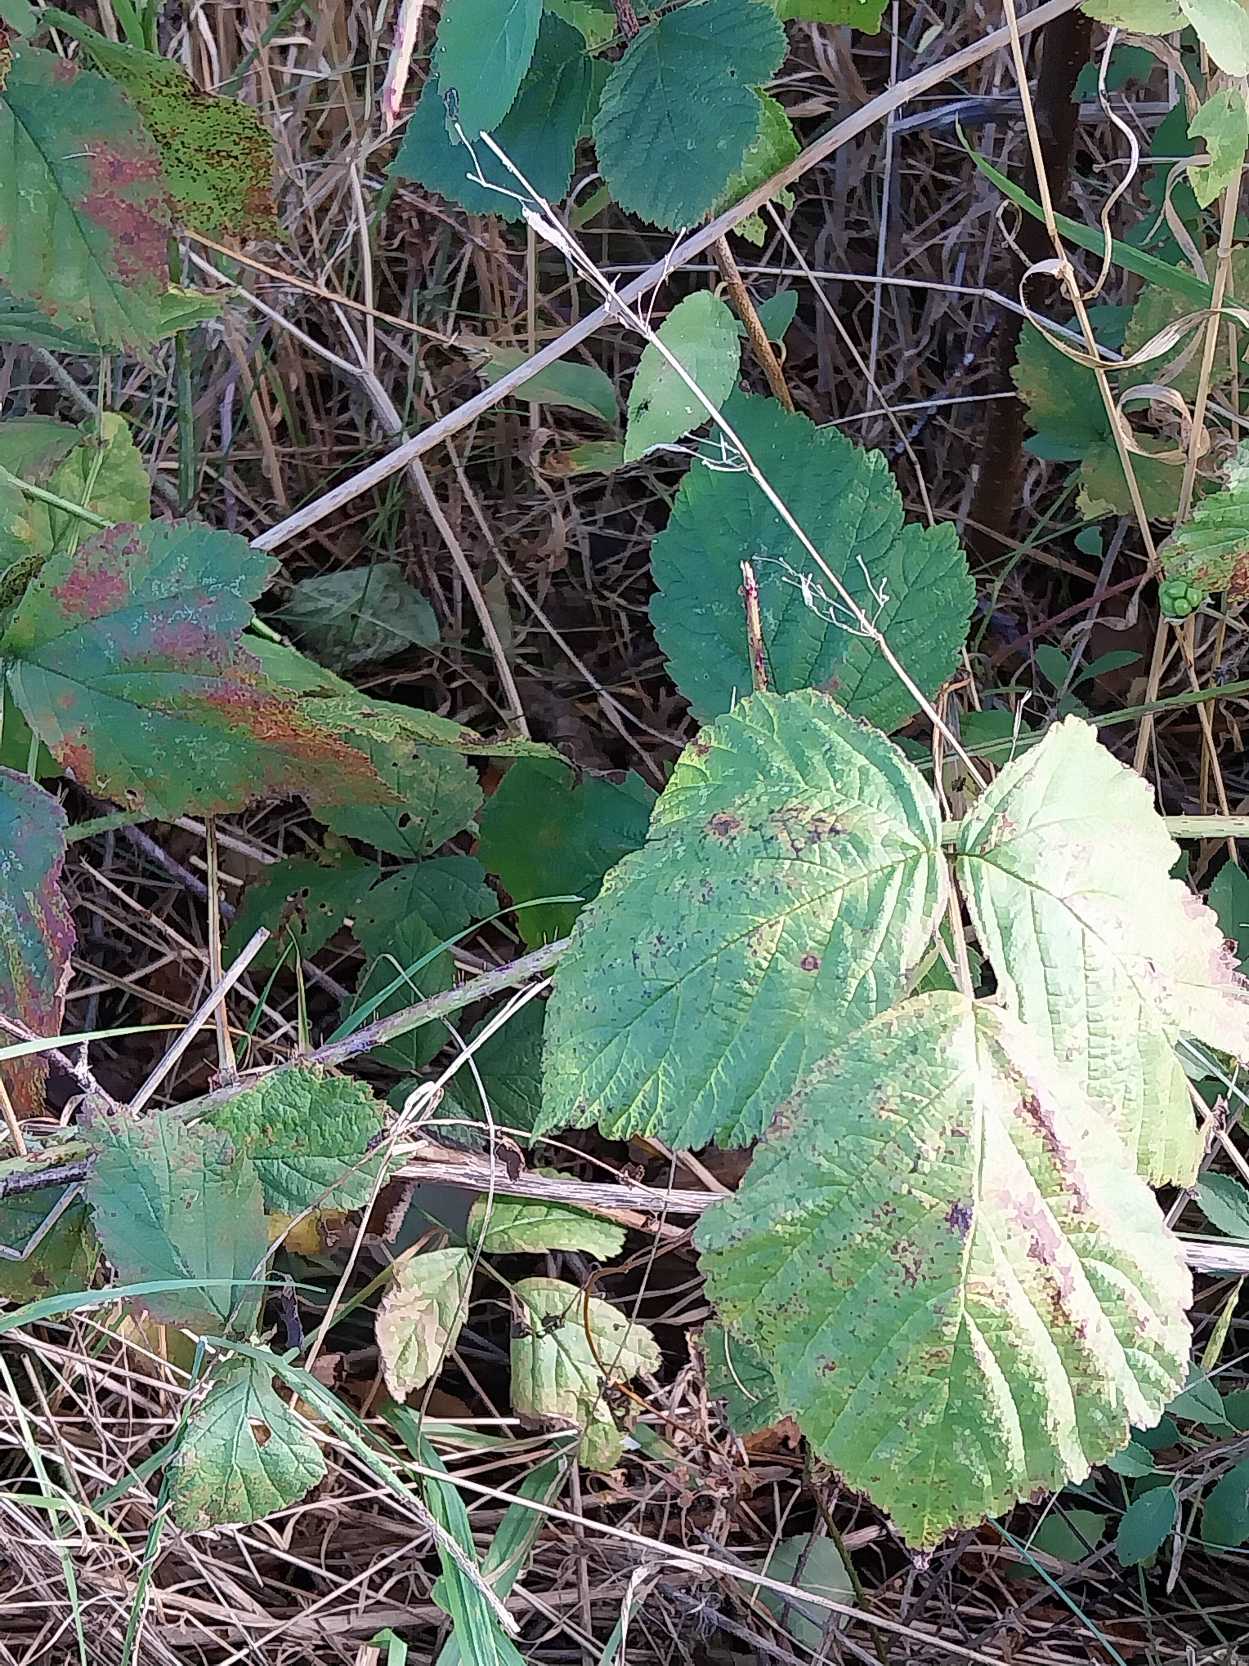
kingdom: Plantae
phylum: Tracheophyta
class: Magnoliopsida
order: Rosales
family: Rosaceae
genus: Rubus
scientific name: Rubus caesius
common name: Korbær
